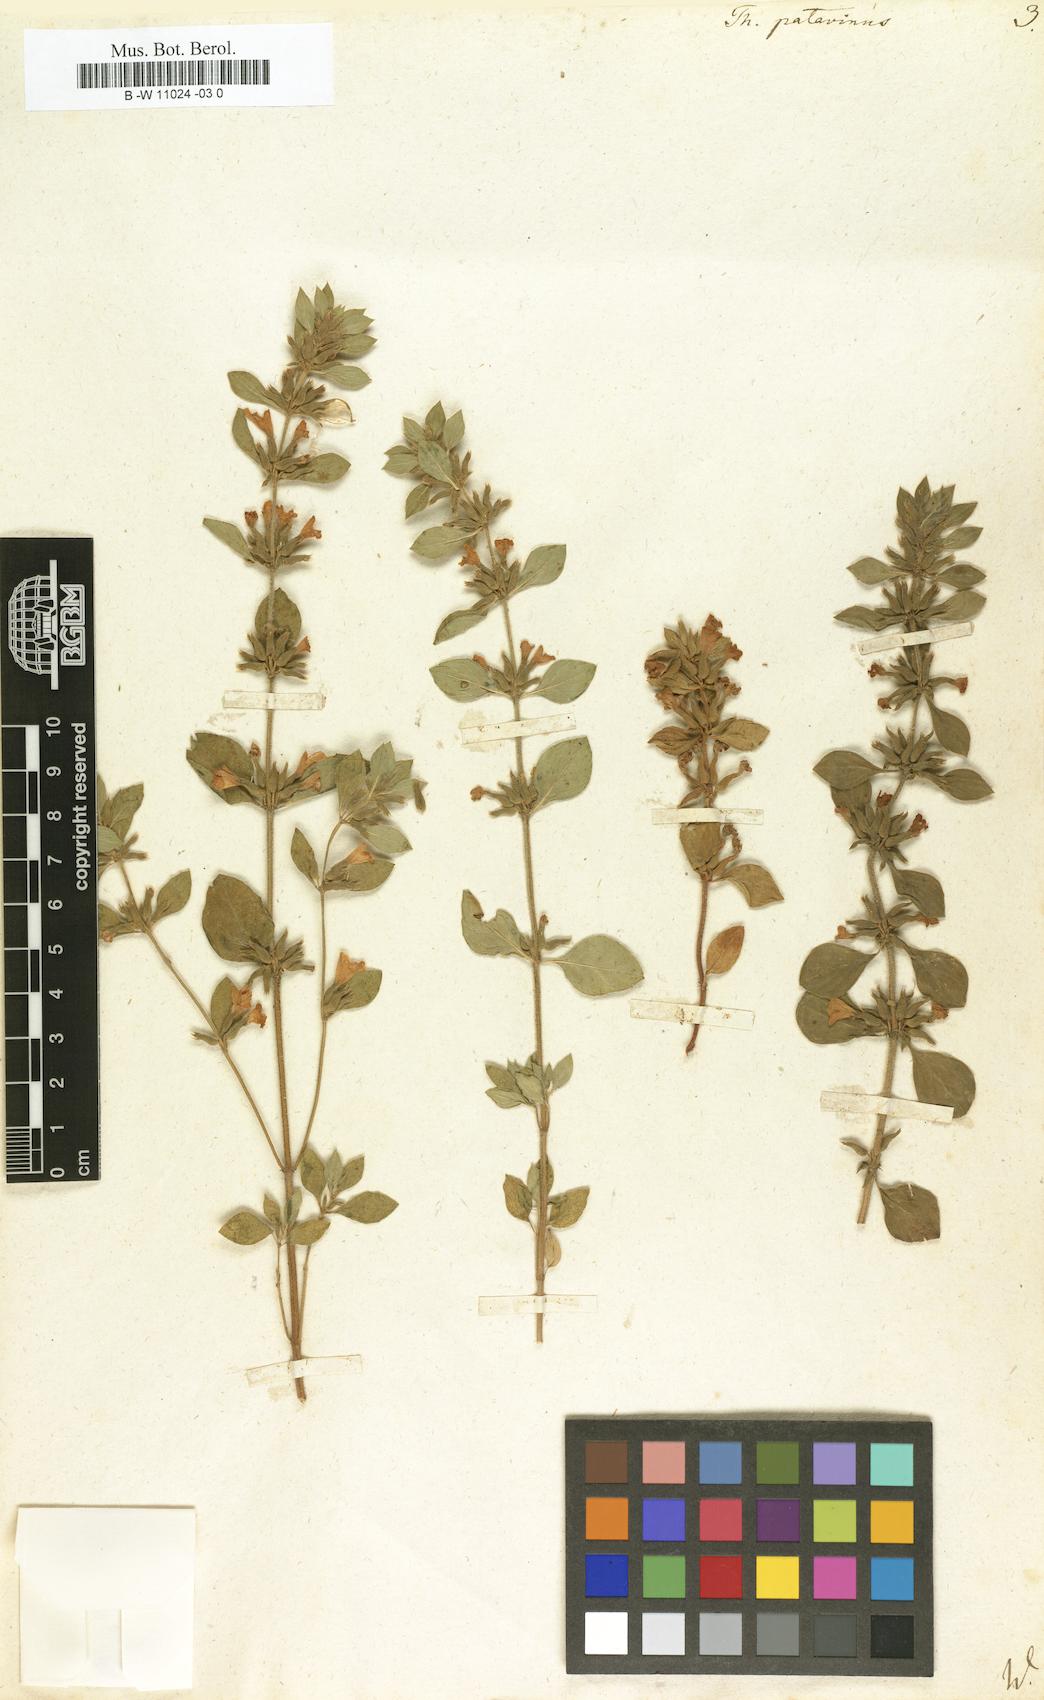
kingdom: Plantae
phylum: Tracheophyta
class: Magnoliopsida
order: Lamiales
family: Lamiaceae
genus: Clinopodium
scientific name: Clinopodium alpinum
